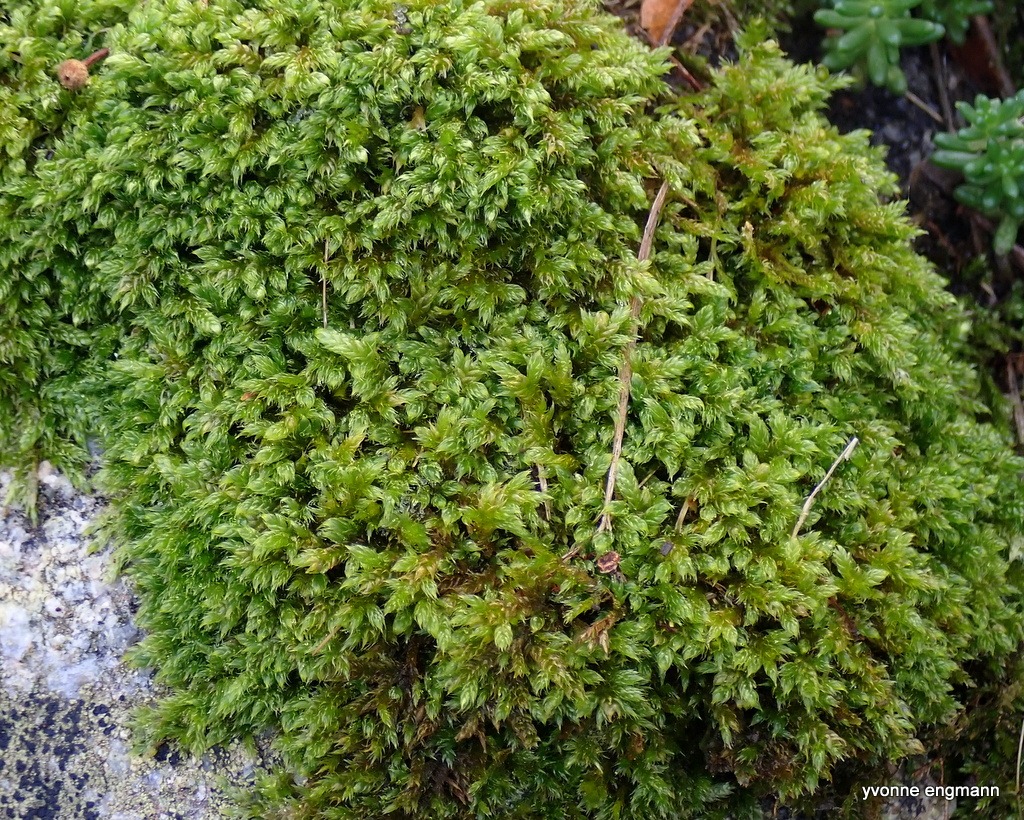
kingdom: Plantae
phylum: Bryophyta
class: Bryopsida
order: Hypnales
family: Hypnaceae
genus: Hypnum
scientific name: Hypnum cupressiforme
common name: Almindelig cypresmos
